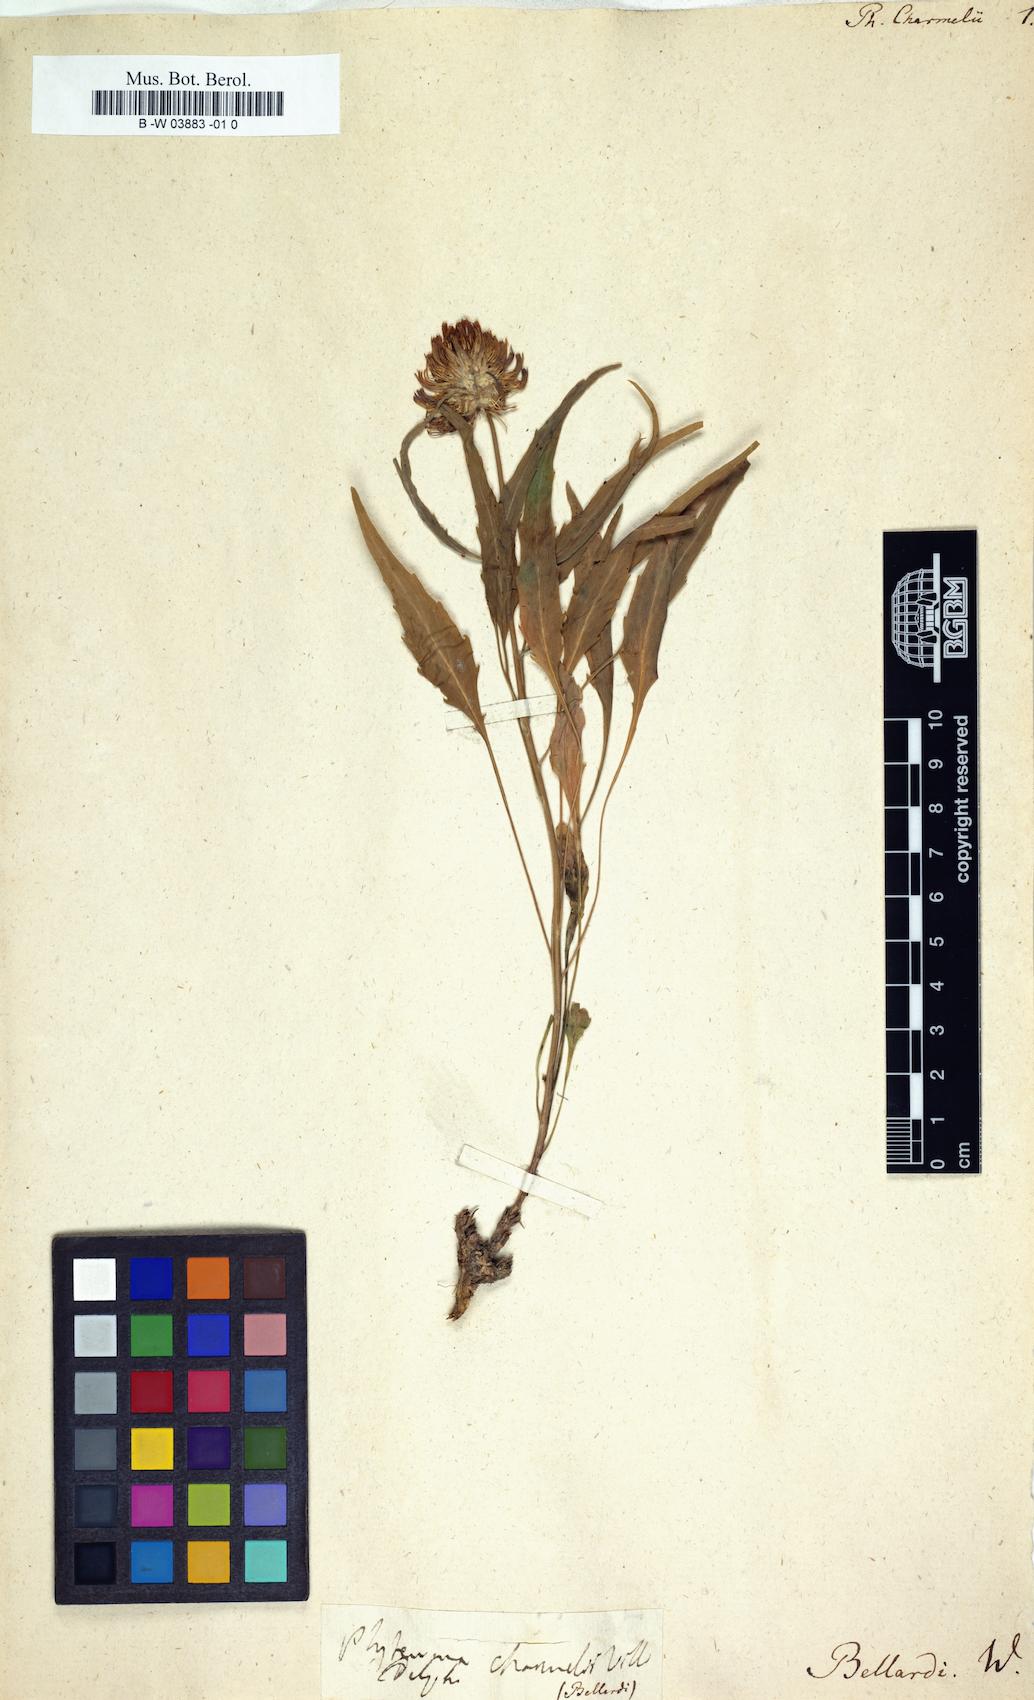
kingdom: Plantae
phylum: Tracheophyta
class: Magnoliopsida
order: Asterales
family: Campanulaceae
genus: Phyteuma
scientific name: Phyteuma charmelii
